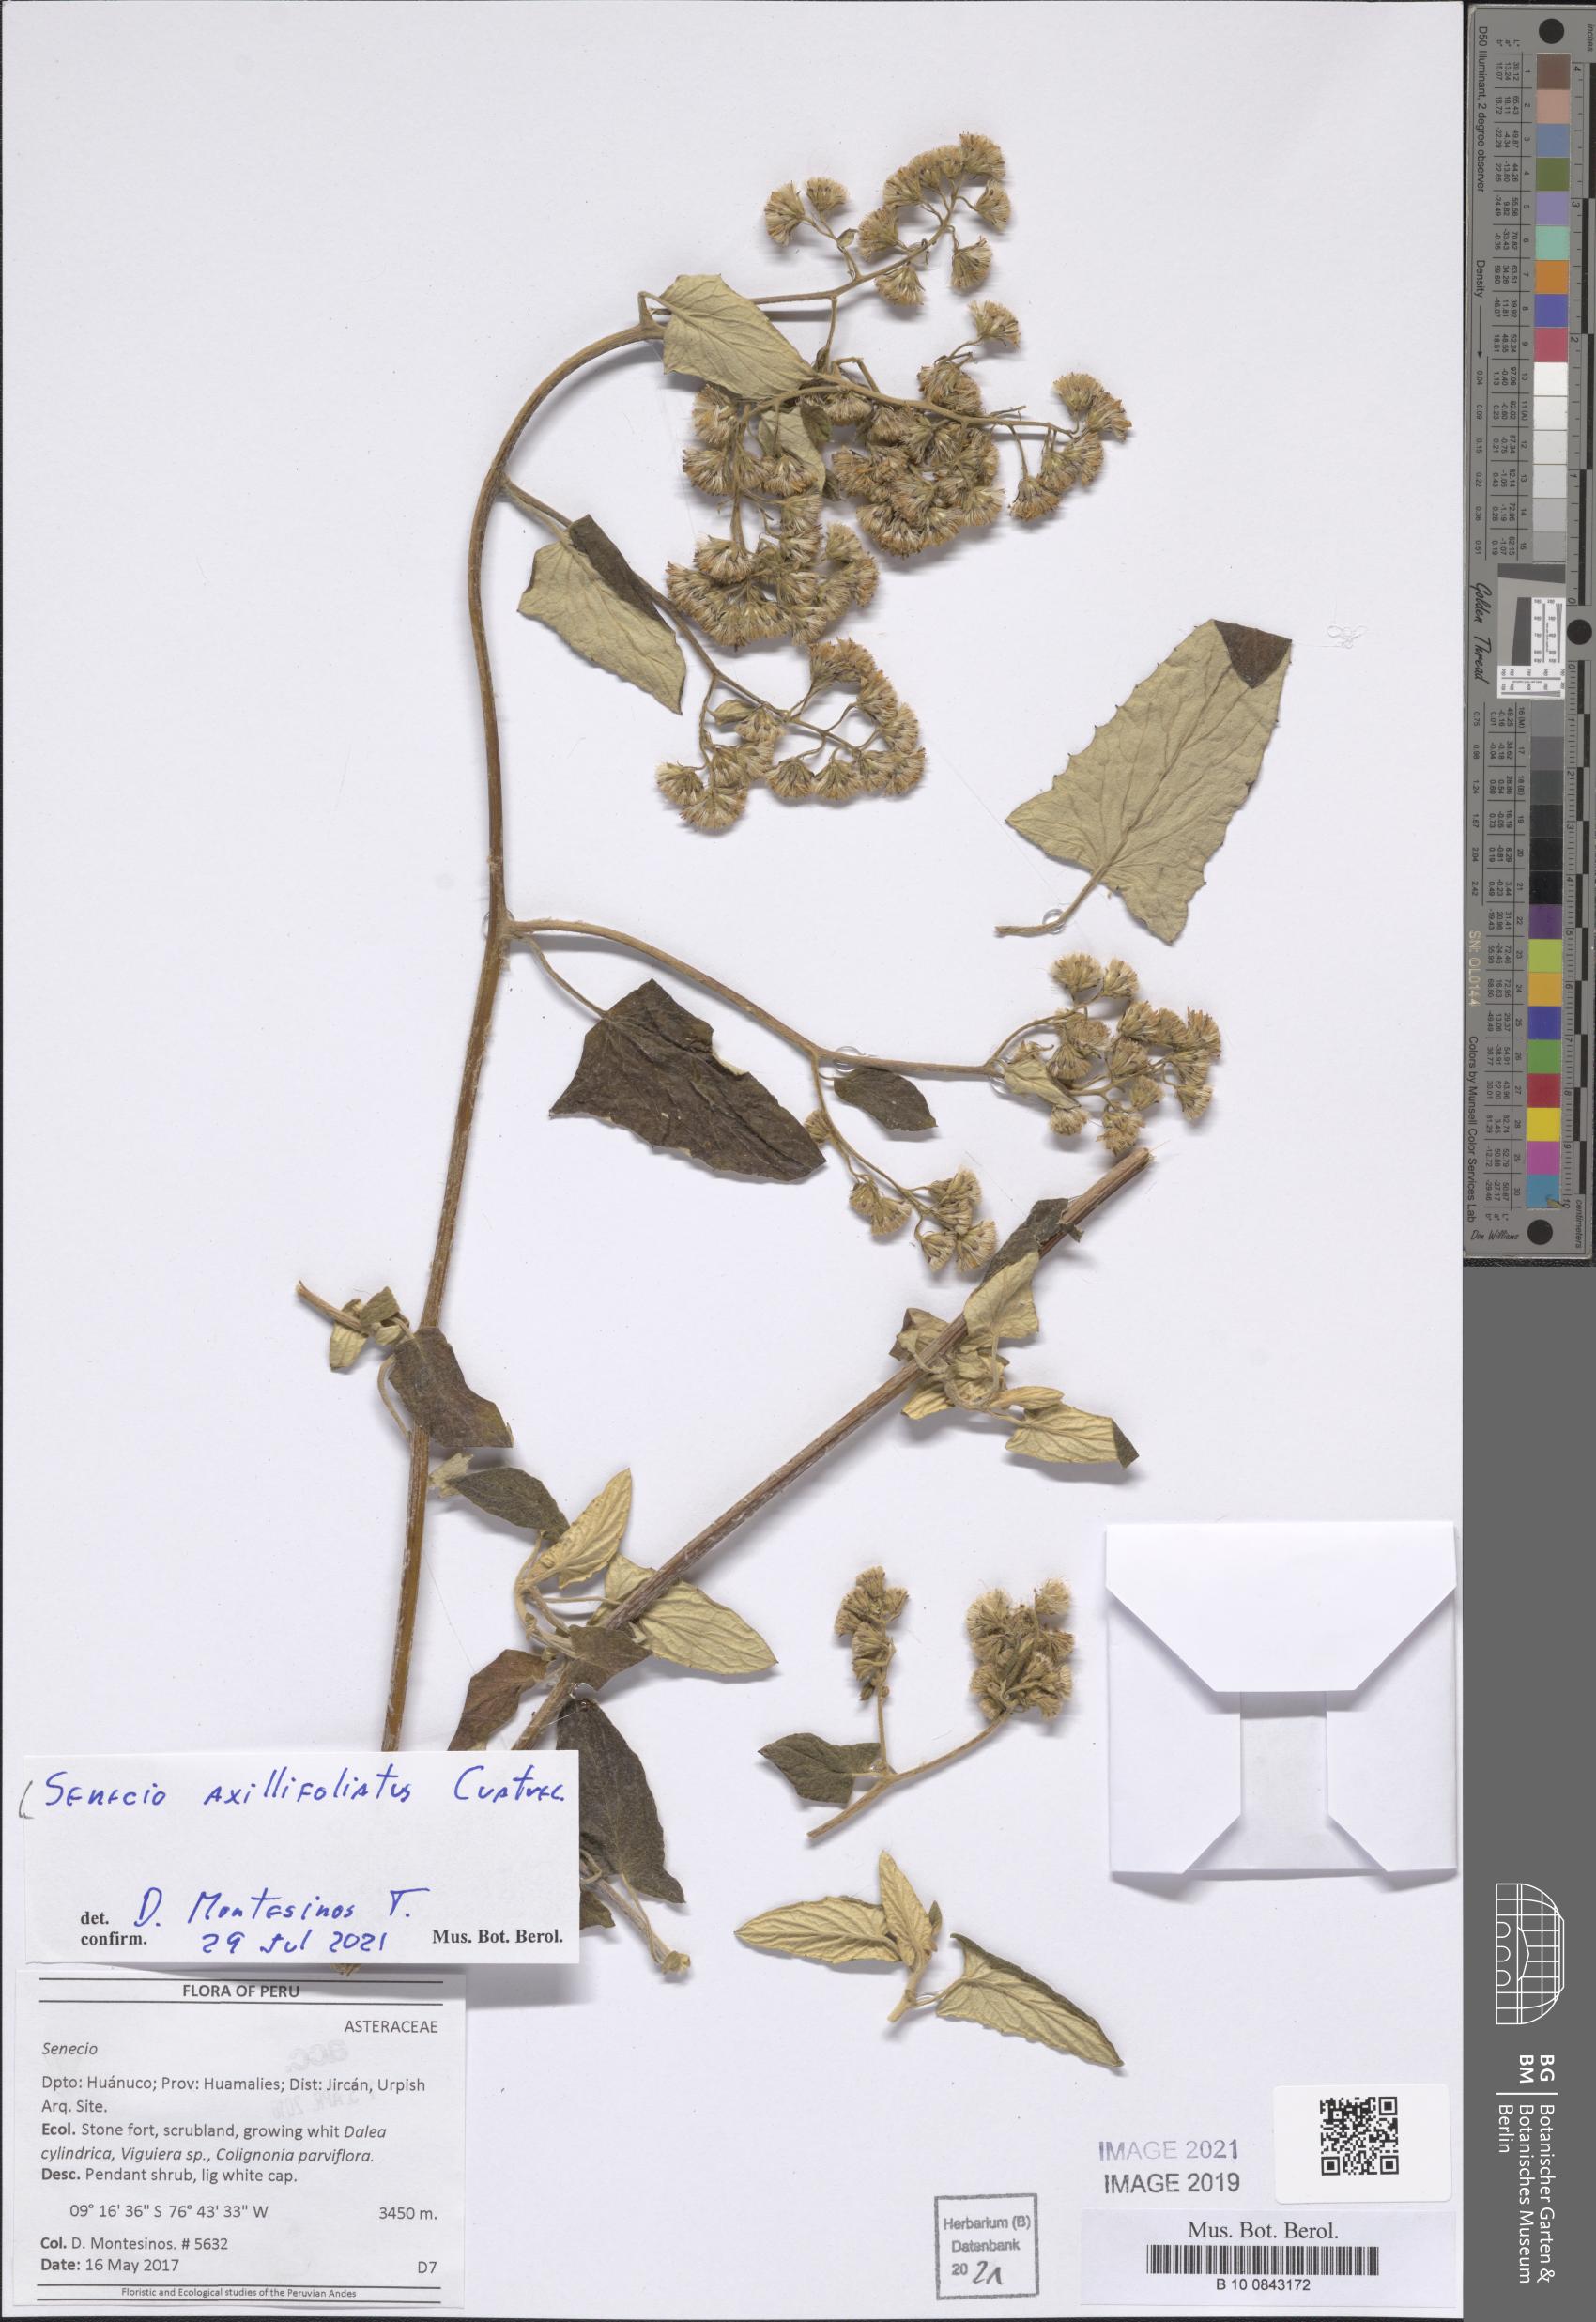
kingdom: Plantae
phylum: Tracheophyta
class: Magnoliopsida
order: Asterales
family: Asteraceae
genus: Senecio
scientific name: Senecio axillifoliatus
